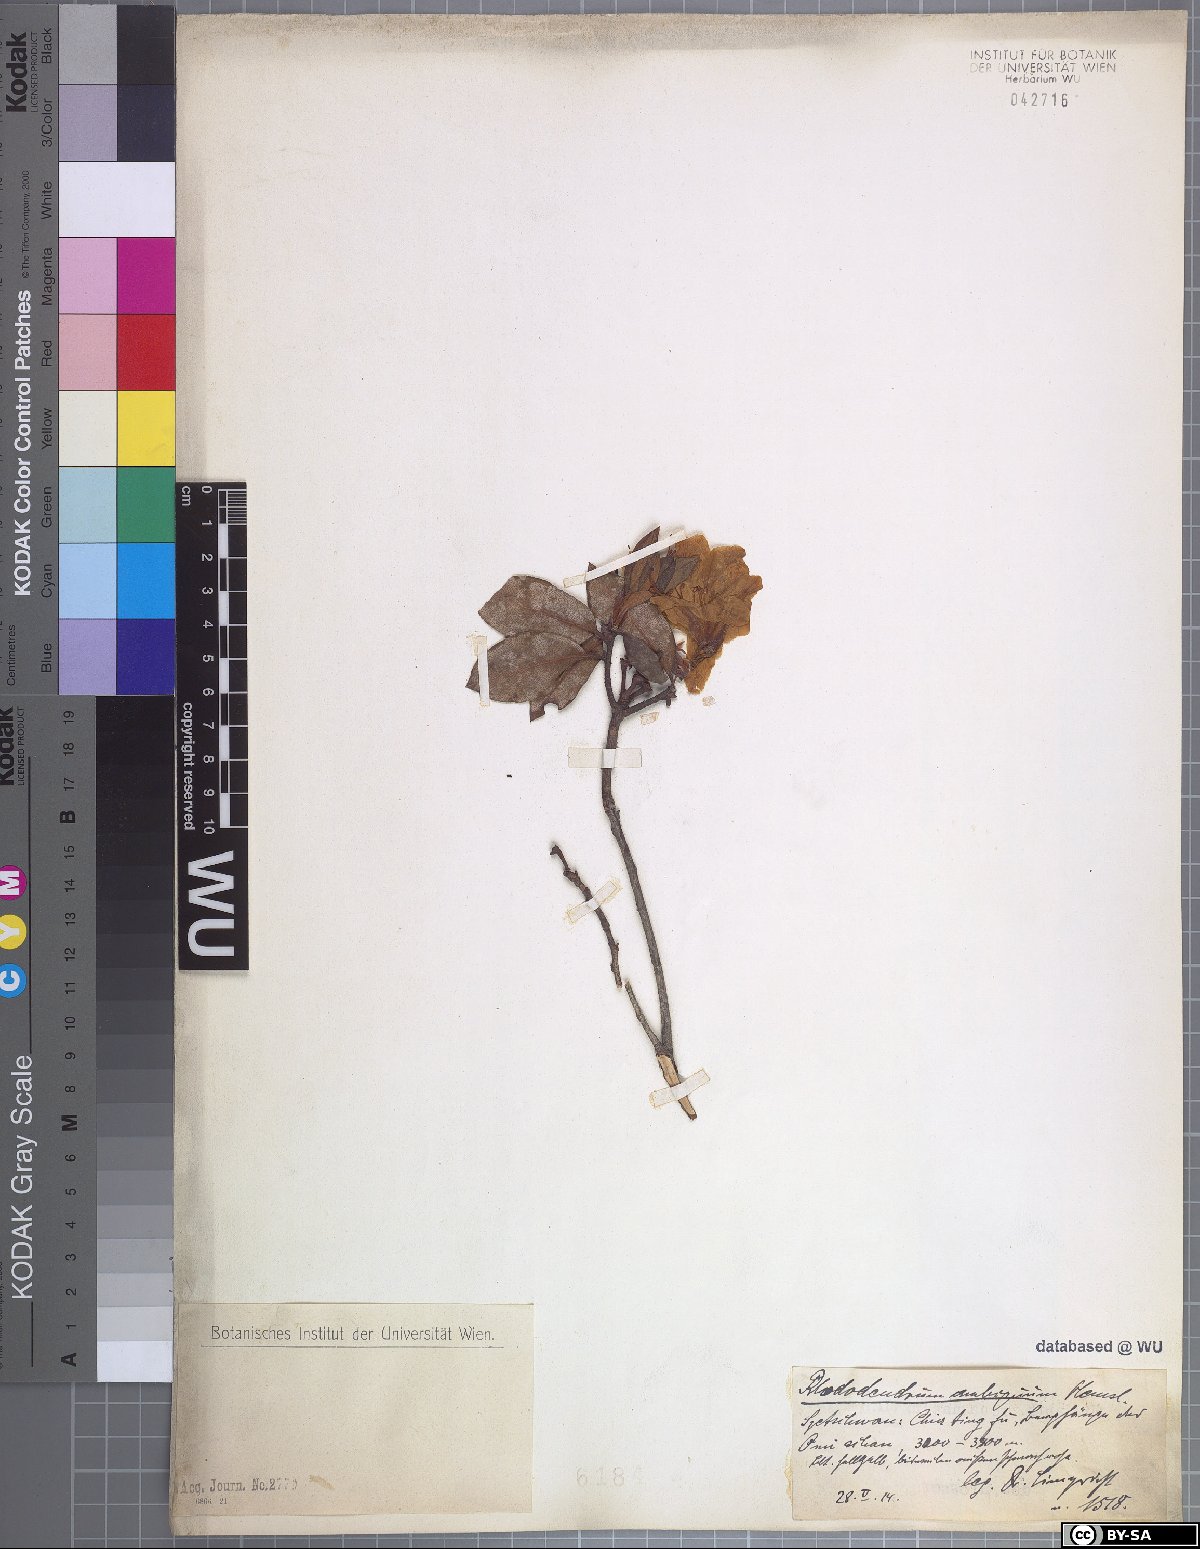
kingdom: Plantae
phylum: Tracheophyta
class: Magnoliopsida
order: Ericales
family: Ericaceae
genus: Rhododendron
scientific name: Rhododendron ambiguum
